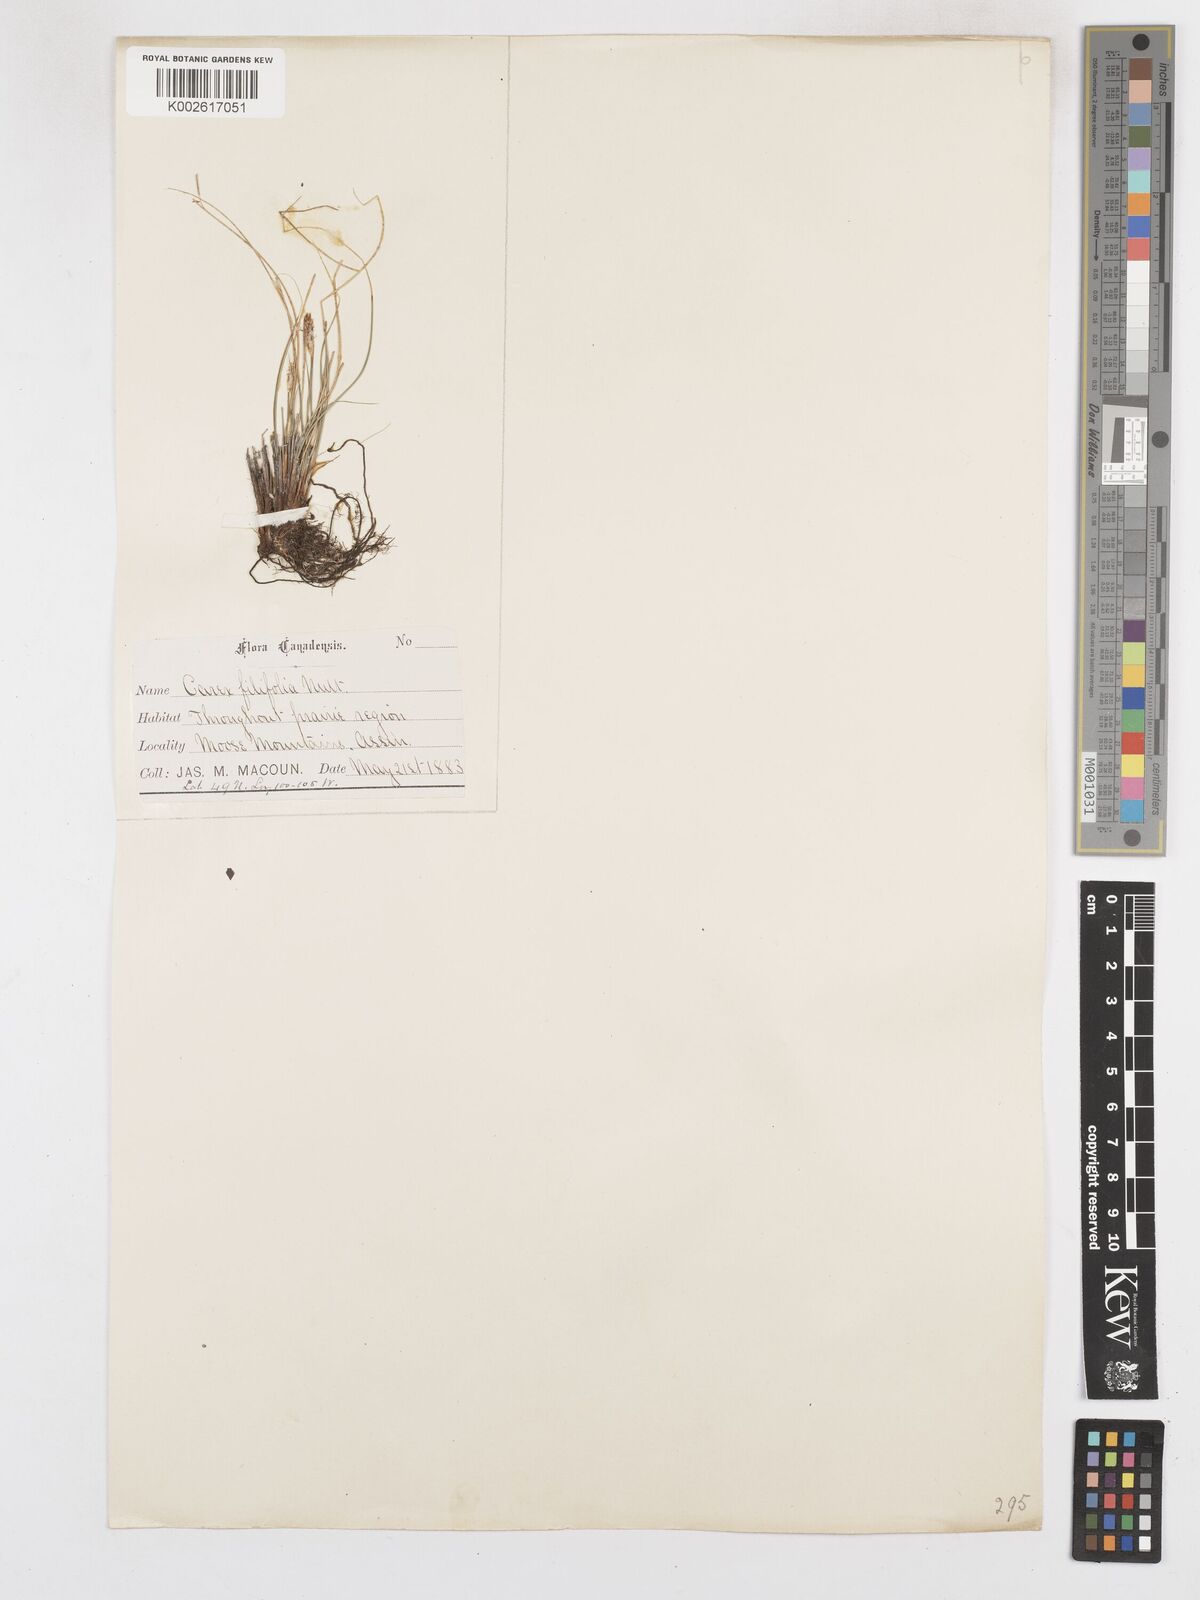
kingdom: Plantae
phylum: Tracheophyta
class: Liliopsida
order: Poales
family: Cyperaceae
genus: Carex
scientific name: Carex filifolia
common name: Threadleaf sedge
